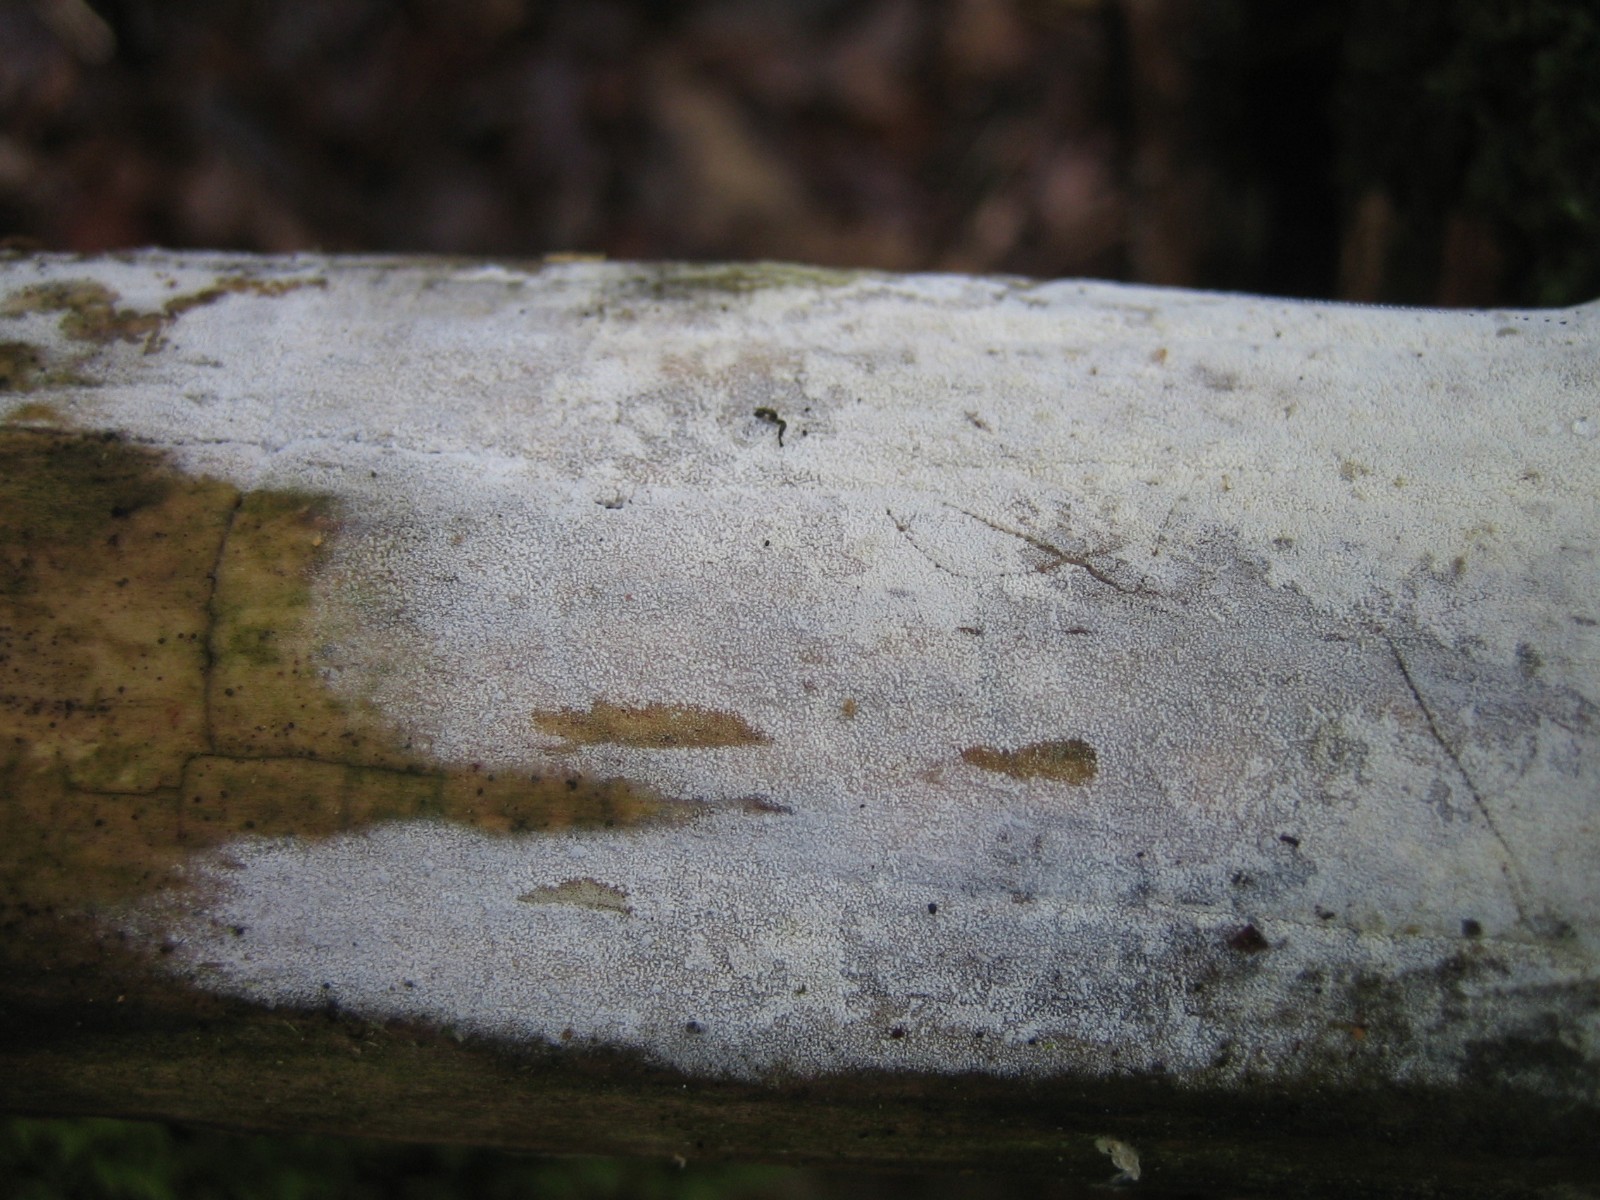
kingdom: Fungi
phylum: Basidiomycota
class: Agaricomycetes
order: Hymenochaetales
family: Schizoporaceae
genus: Xylodon
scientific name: Xylodon
